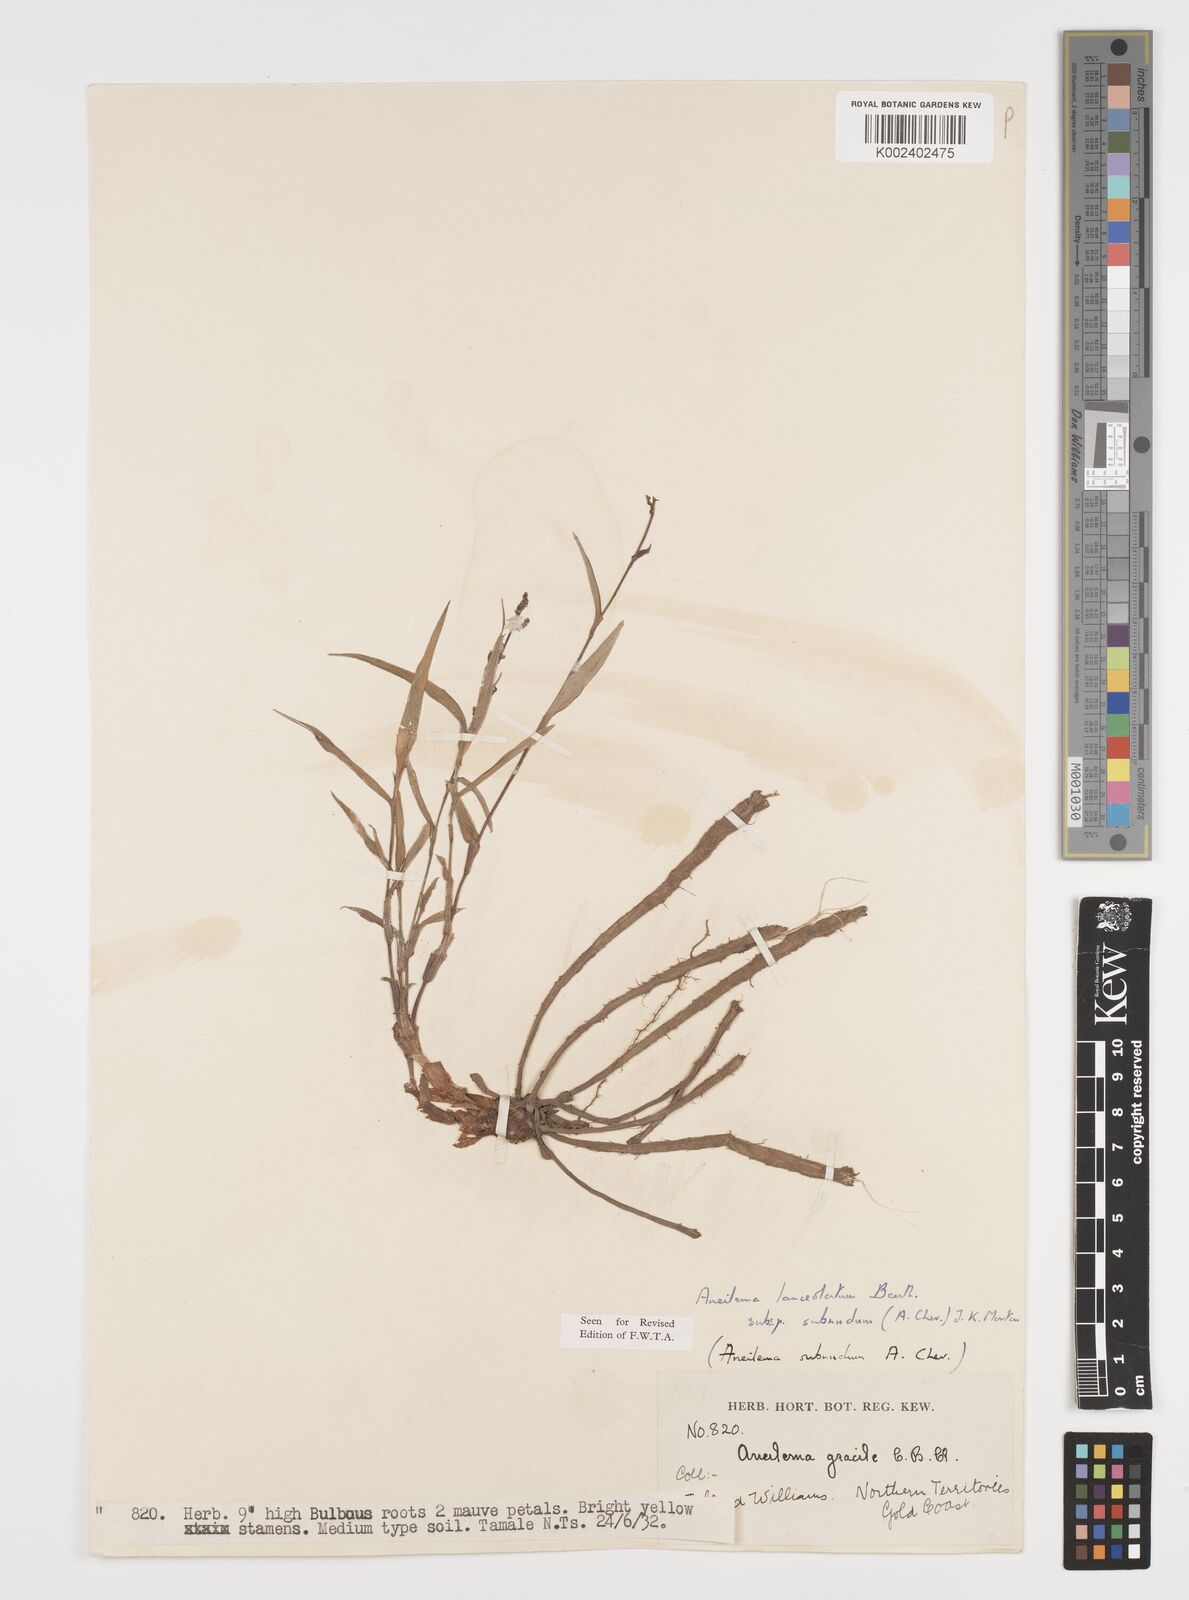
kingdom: Plantae
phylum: Tracheophyta
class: Liliopsida
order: Commelinales
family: Commelinaceae
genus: Aneilema
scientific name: Aneilema lanceolatum
